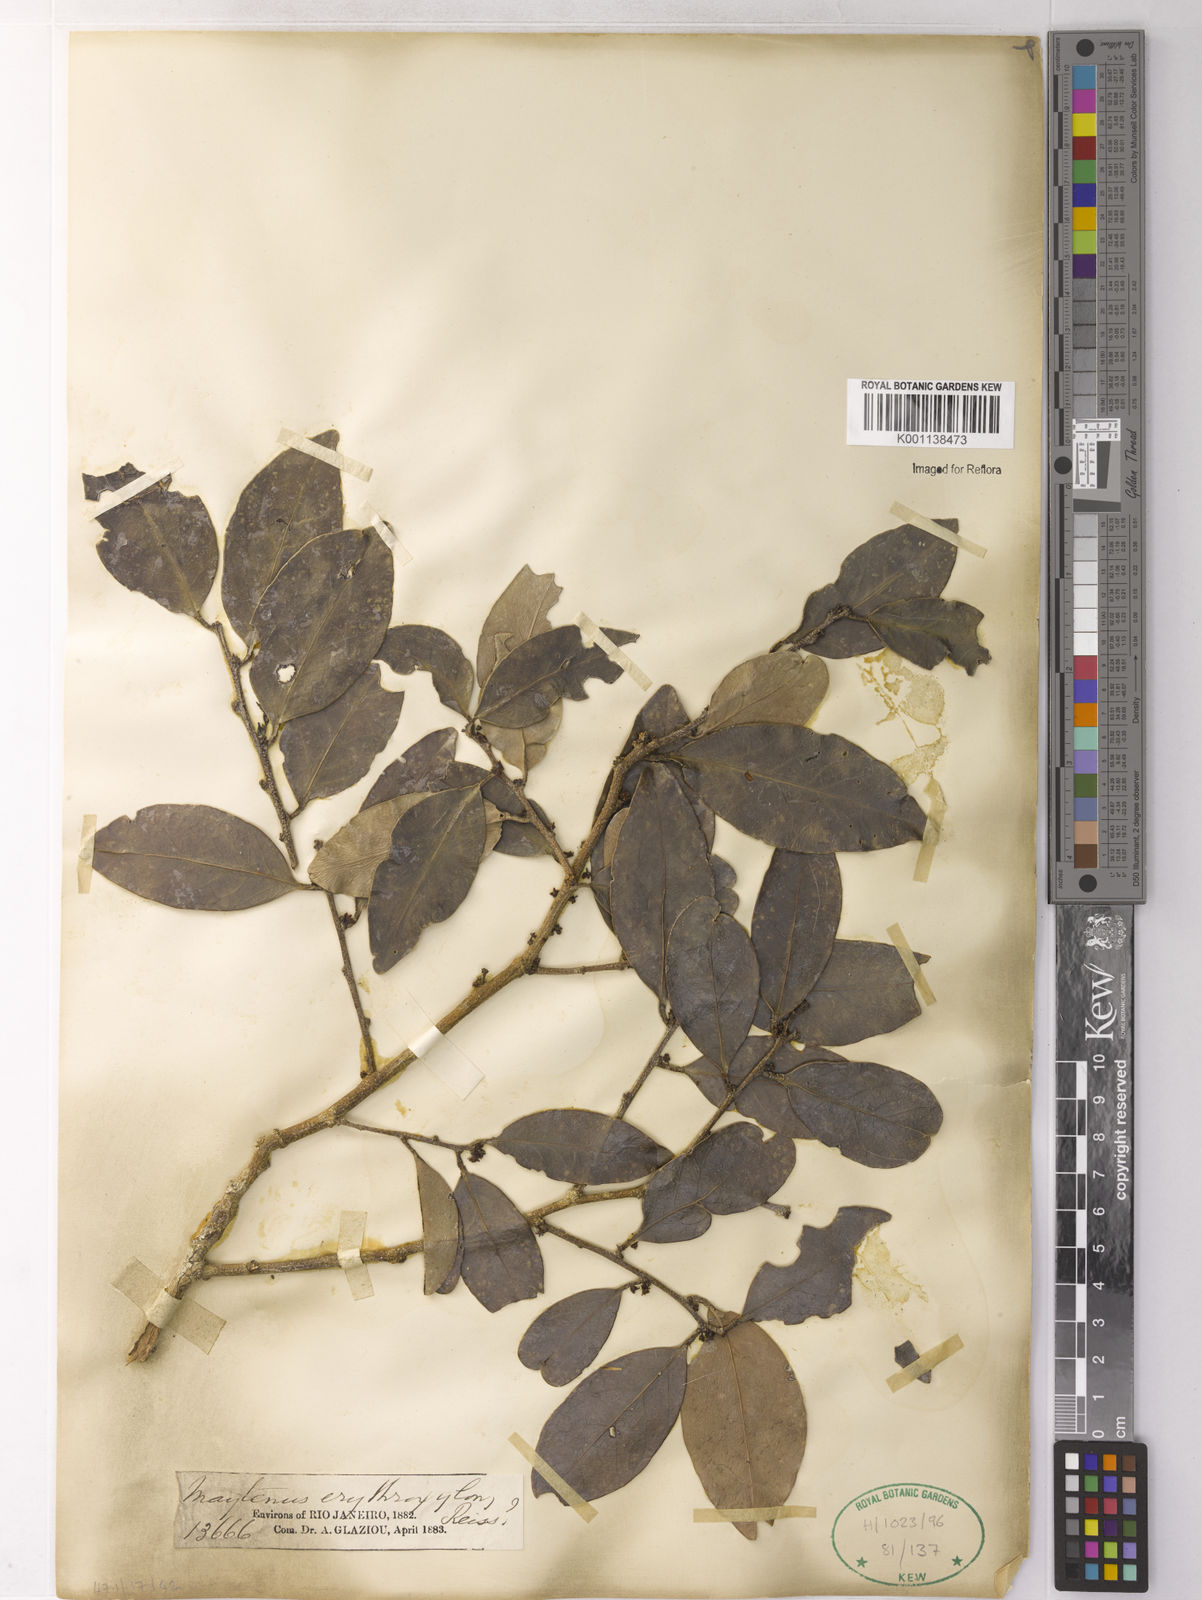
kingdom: Plantae
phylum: Tracheophyta
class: Magnoliopsida
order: Celastrales
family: Celastraceae
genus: Monteverdia
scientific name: Monteverdia erythroxylon
